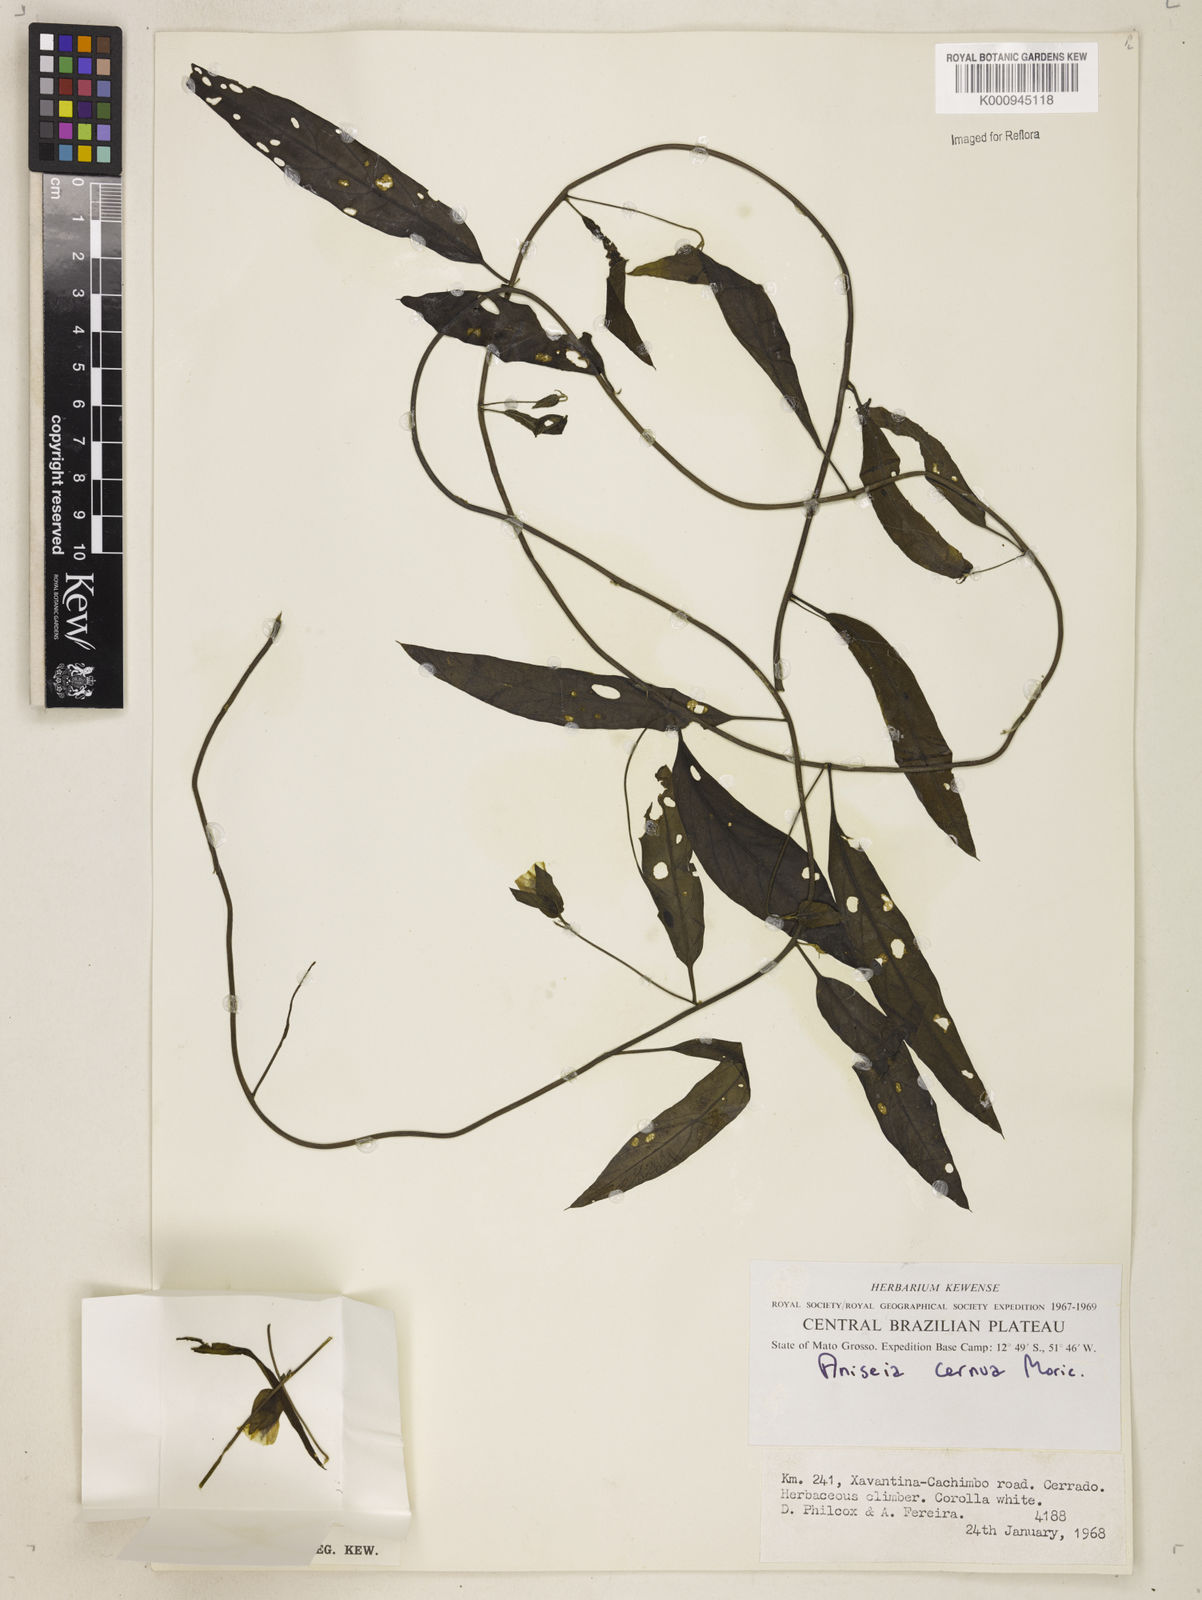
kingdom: Plantae
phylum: Tracheophyta
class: Magnoliopsida
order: Solanales
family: Convolvulaceae
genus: Aniseia
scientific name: Aniseia
